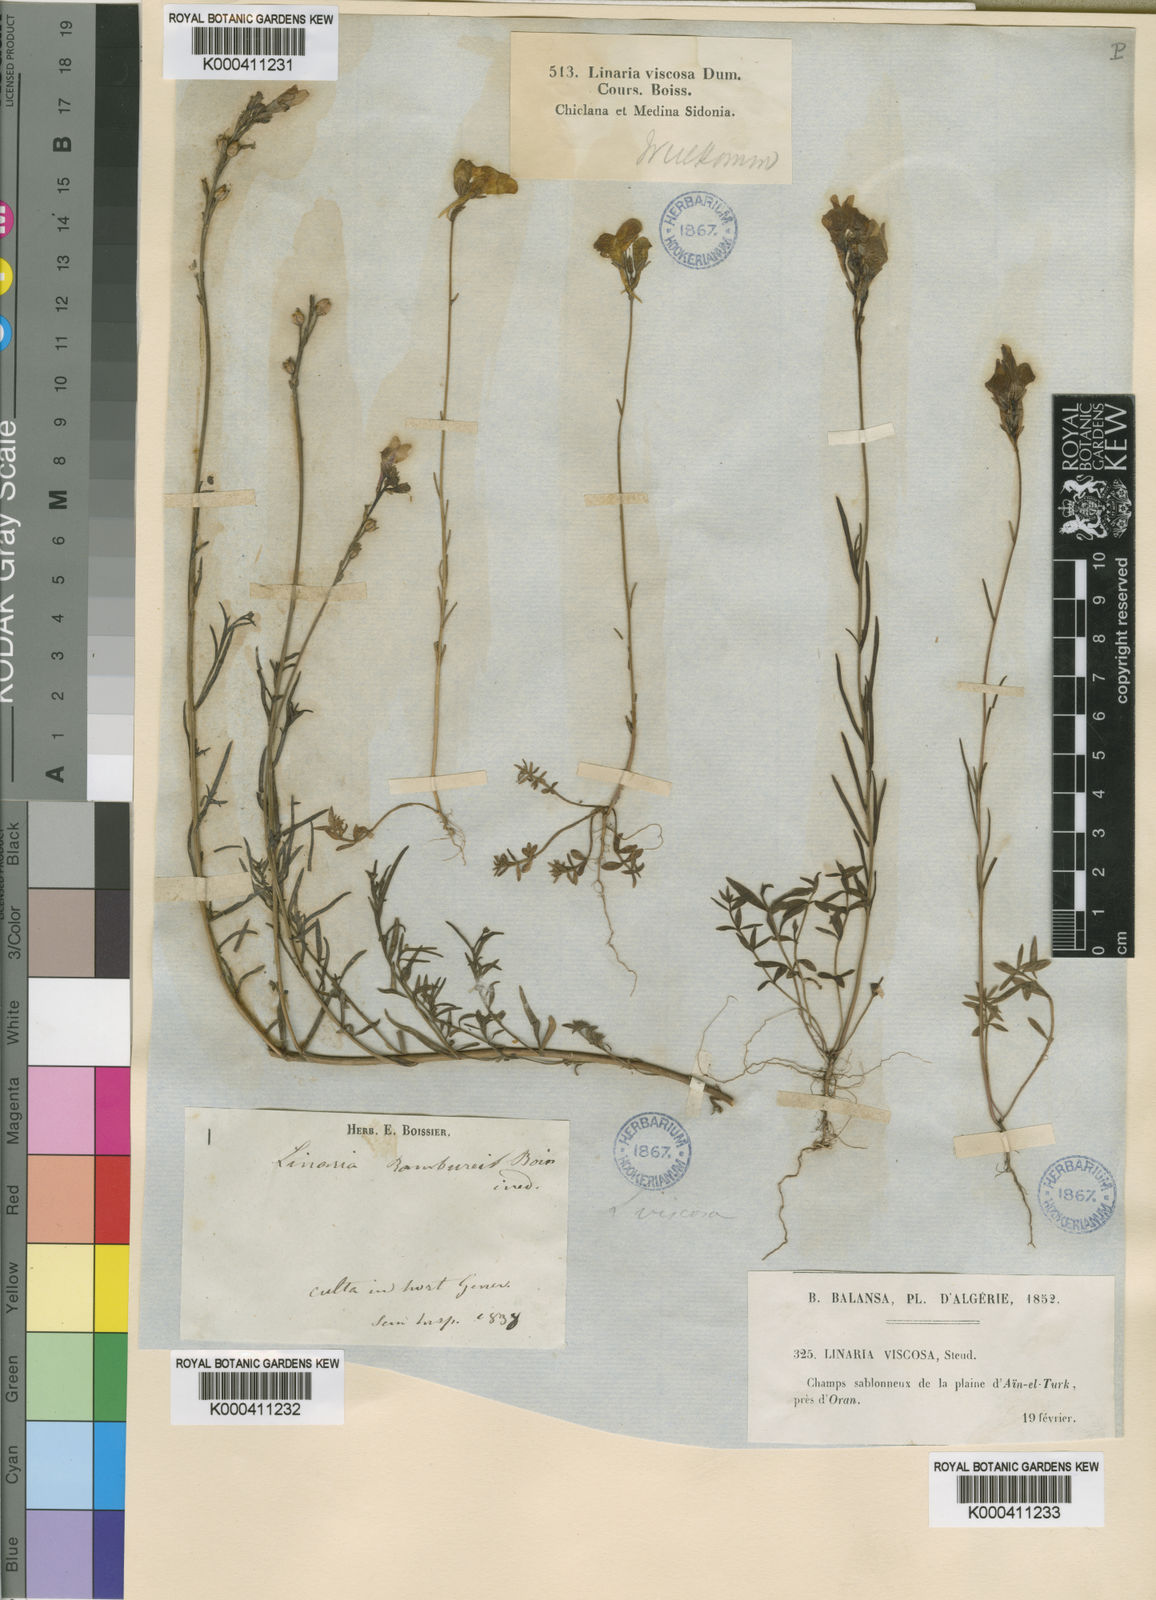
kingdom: Plantae
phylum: Tracheophyta
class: Magnoliopsida
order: Lamiales
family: Plantaginaceae
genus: Linaria
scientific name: Linaria
